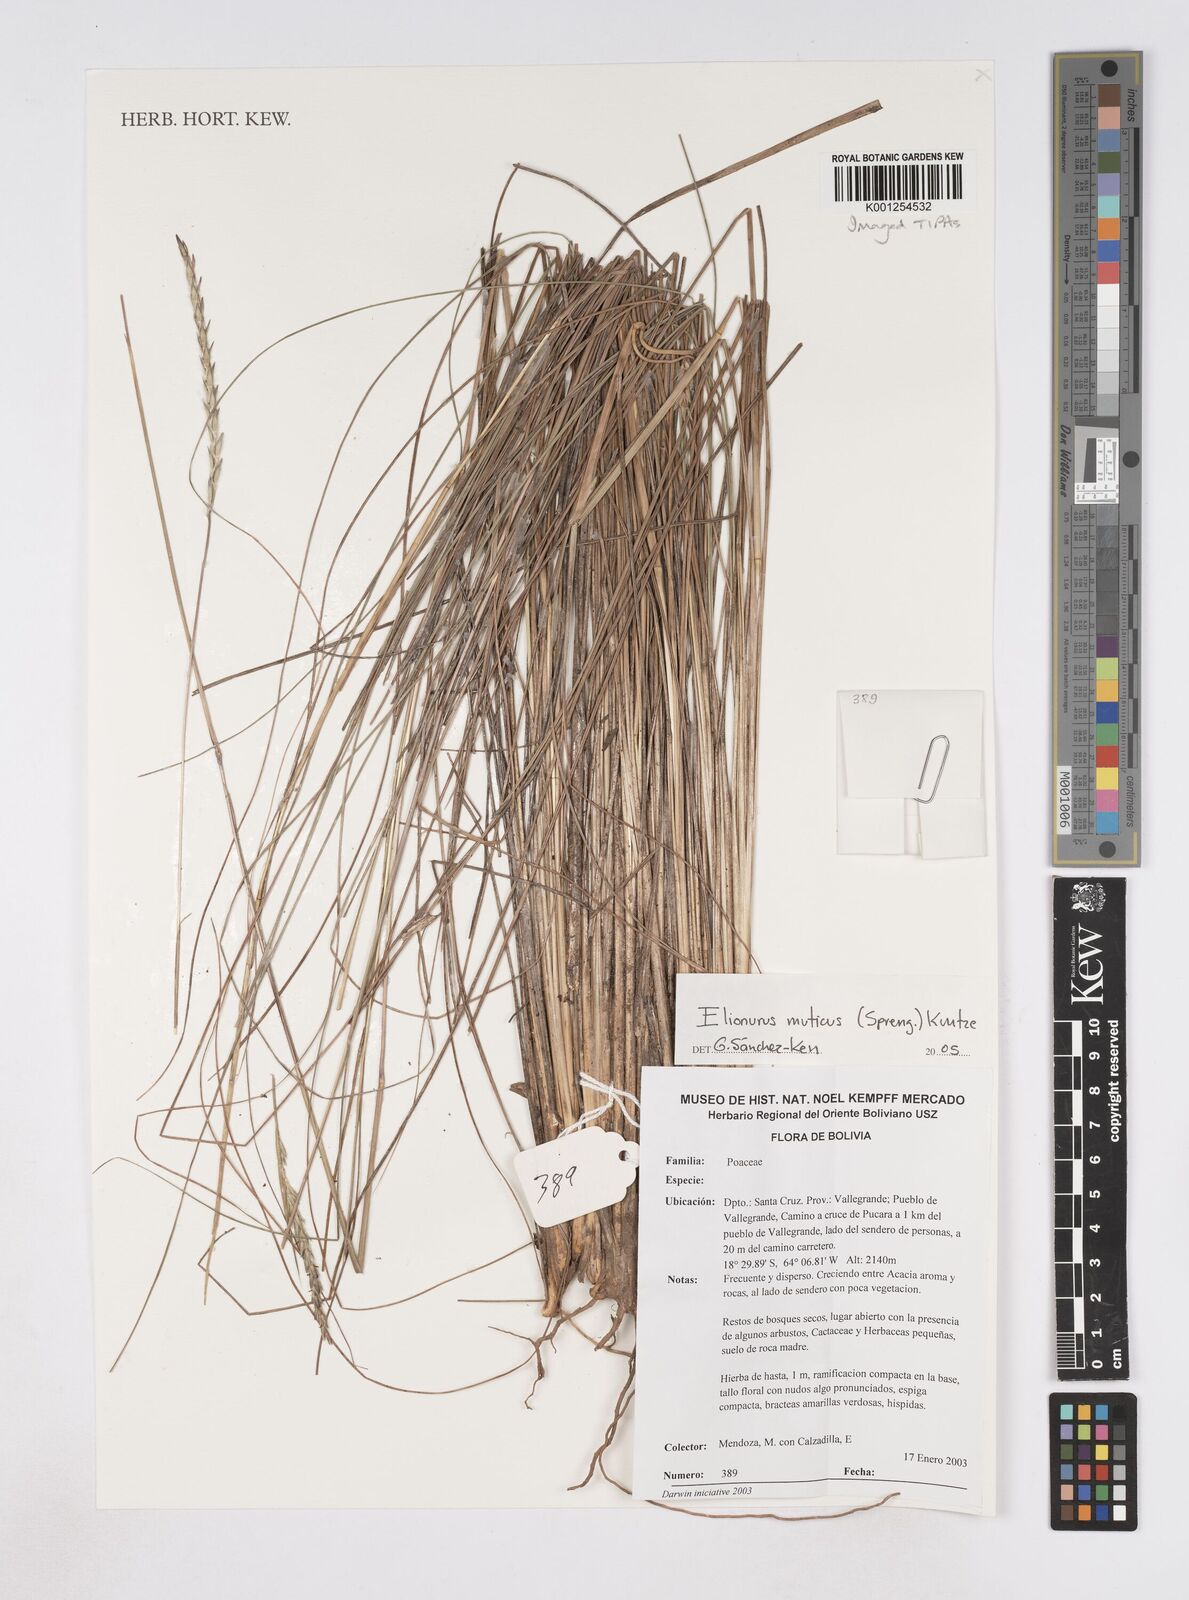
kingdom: Plantae
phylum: Tracheophyta
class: Liliopsida
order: Poales
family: Poaceae
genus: Elionurus
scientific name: Elionurus muticus
